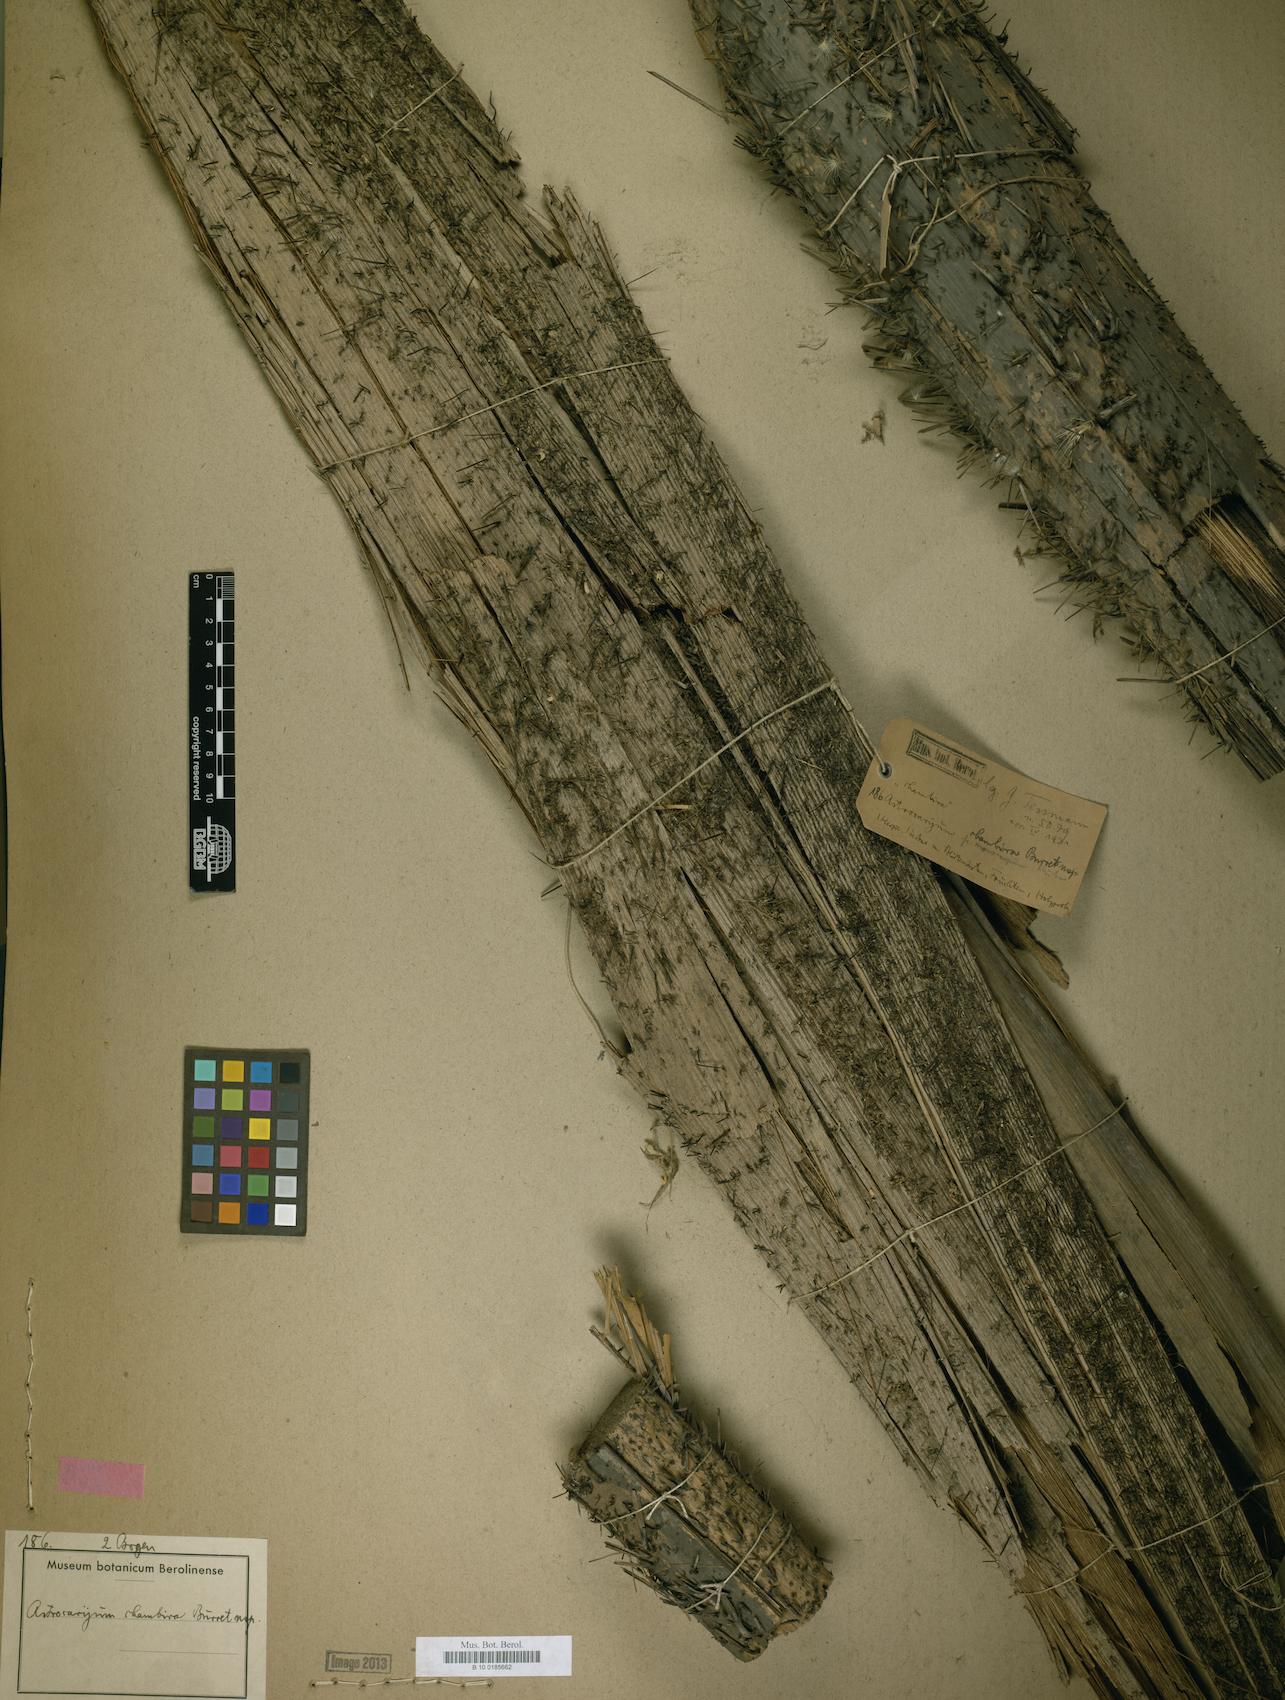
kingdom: Plantae
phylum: Tracheophyta
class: Liliopsida
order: Arecales
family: Arecaceae
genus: Astrocaryum
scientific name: Astrocaryum chambira
